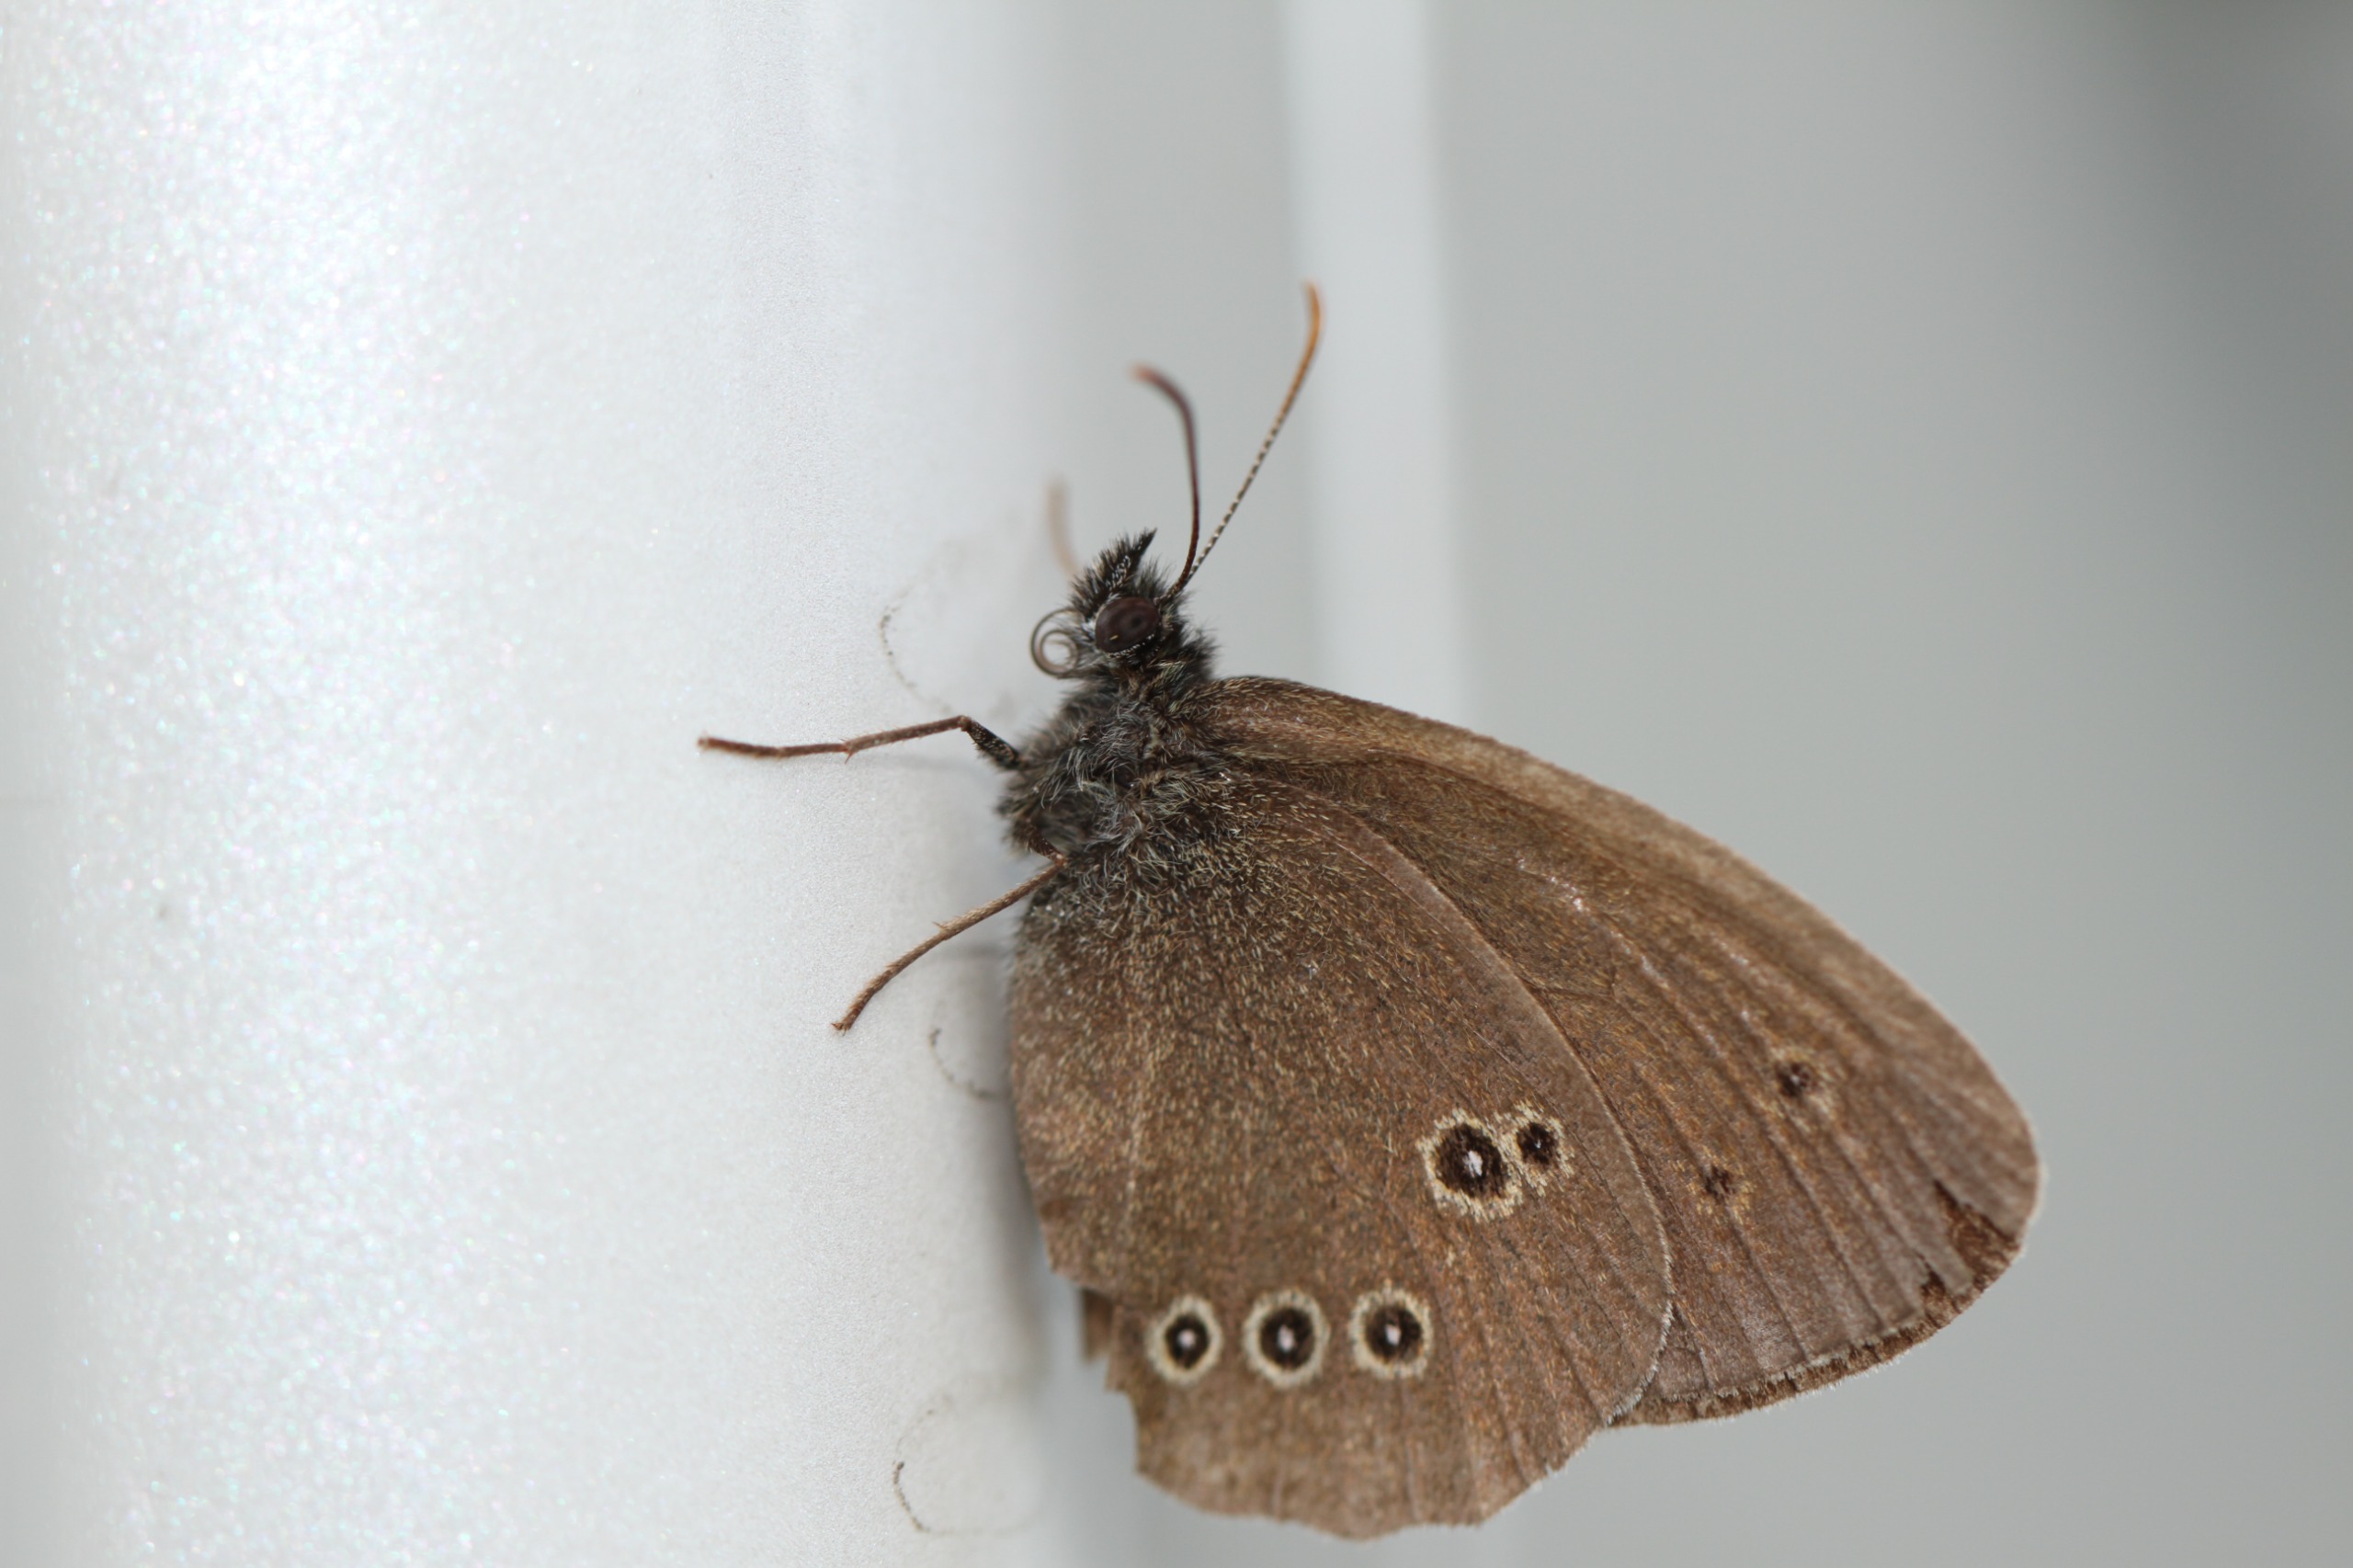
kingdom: Animalia
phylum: Arthropoda
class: Insecta
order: Lepidoptera
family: Nymphalidae
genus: Aphantopus
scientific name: Aphantopus hyperantus
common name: Engrandøje
